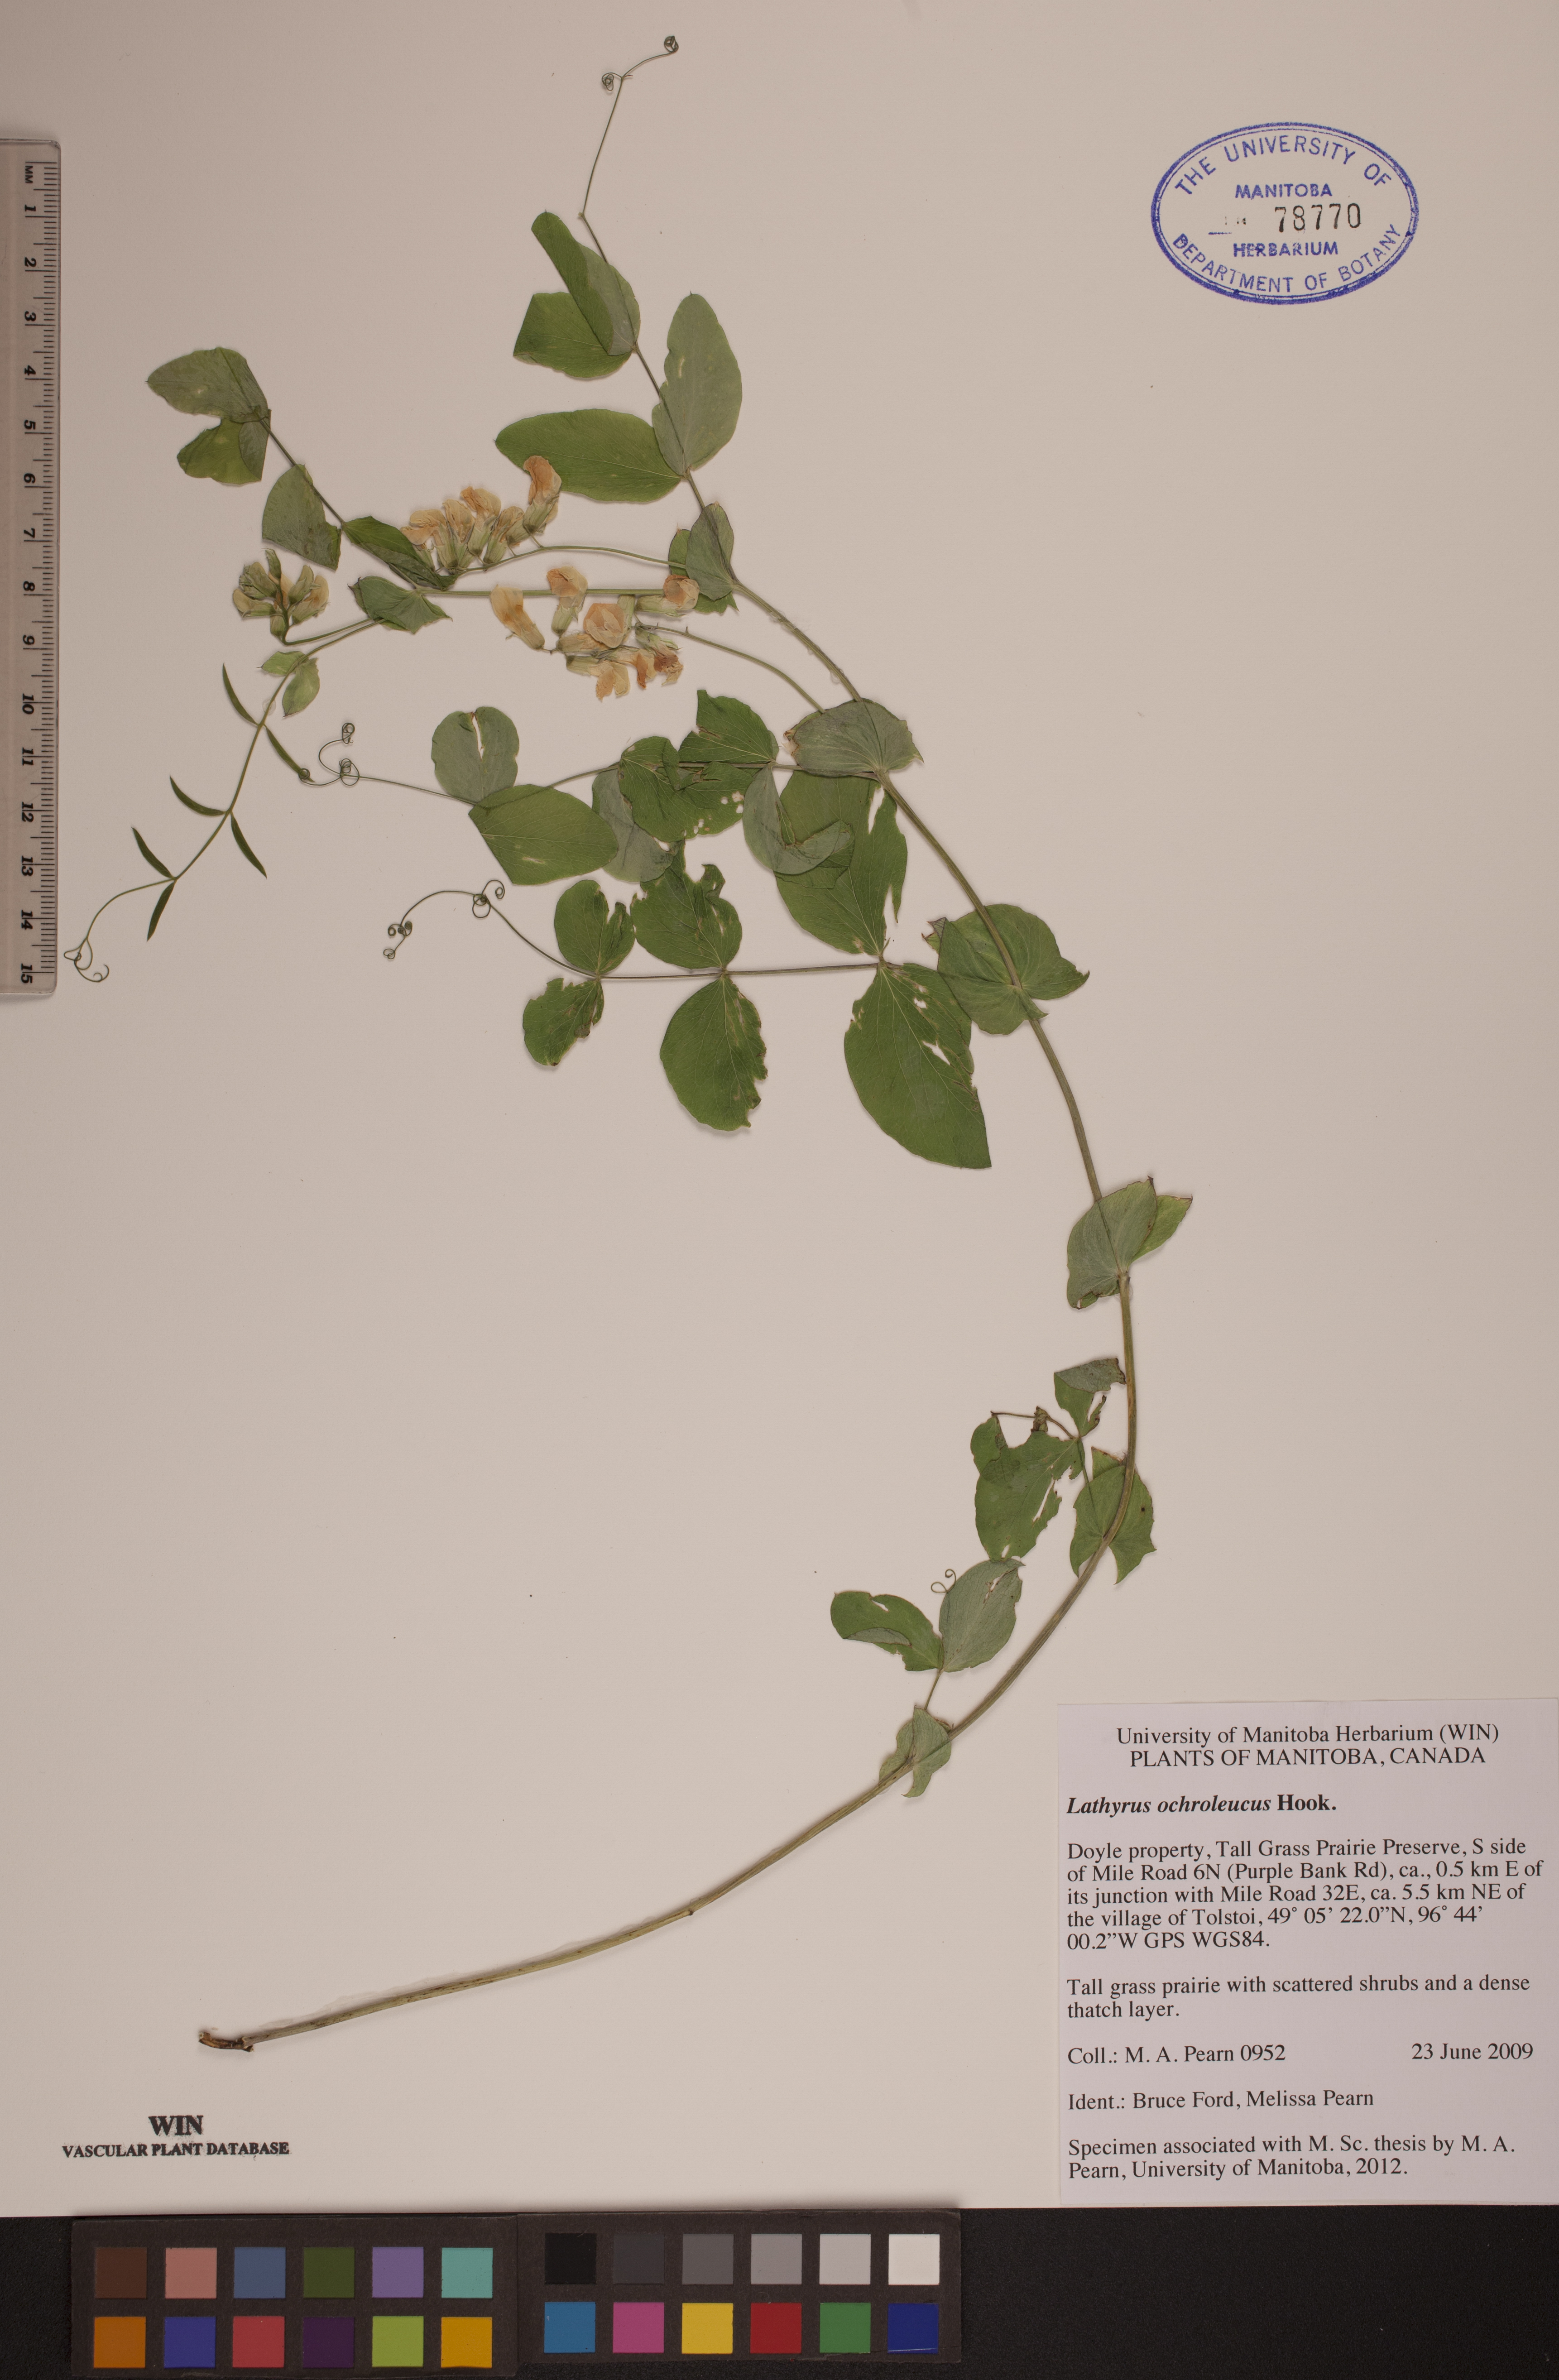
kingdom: Plantae
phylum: Tracheophyta
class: Magnoliopsida
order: Fabales
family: Fabaceae
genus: Lathyrus
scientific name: Lathyrus ochroleucus
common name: Pale vetchling
